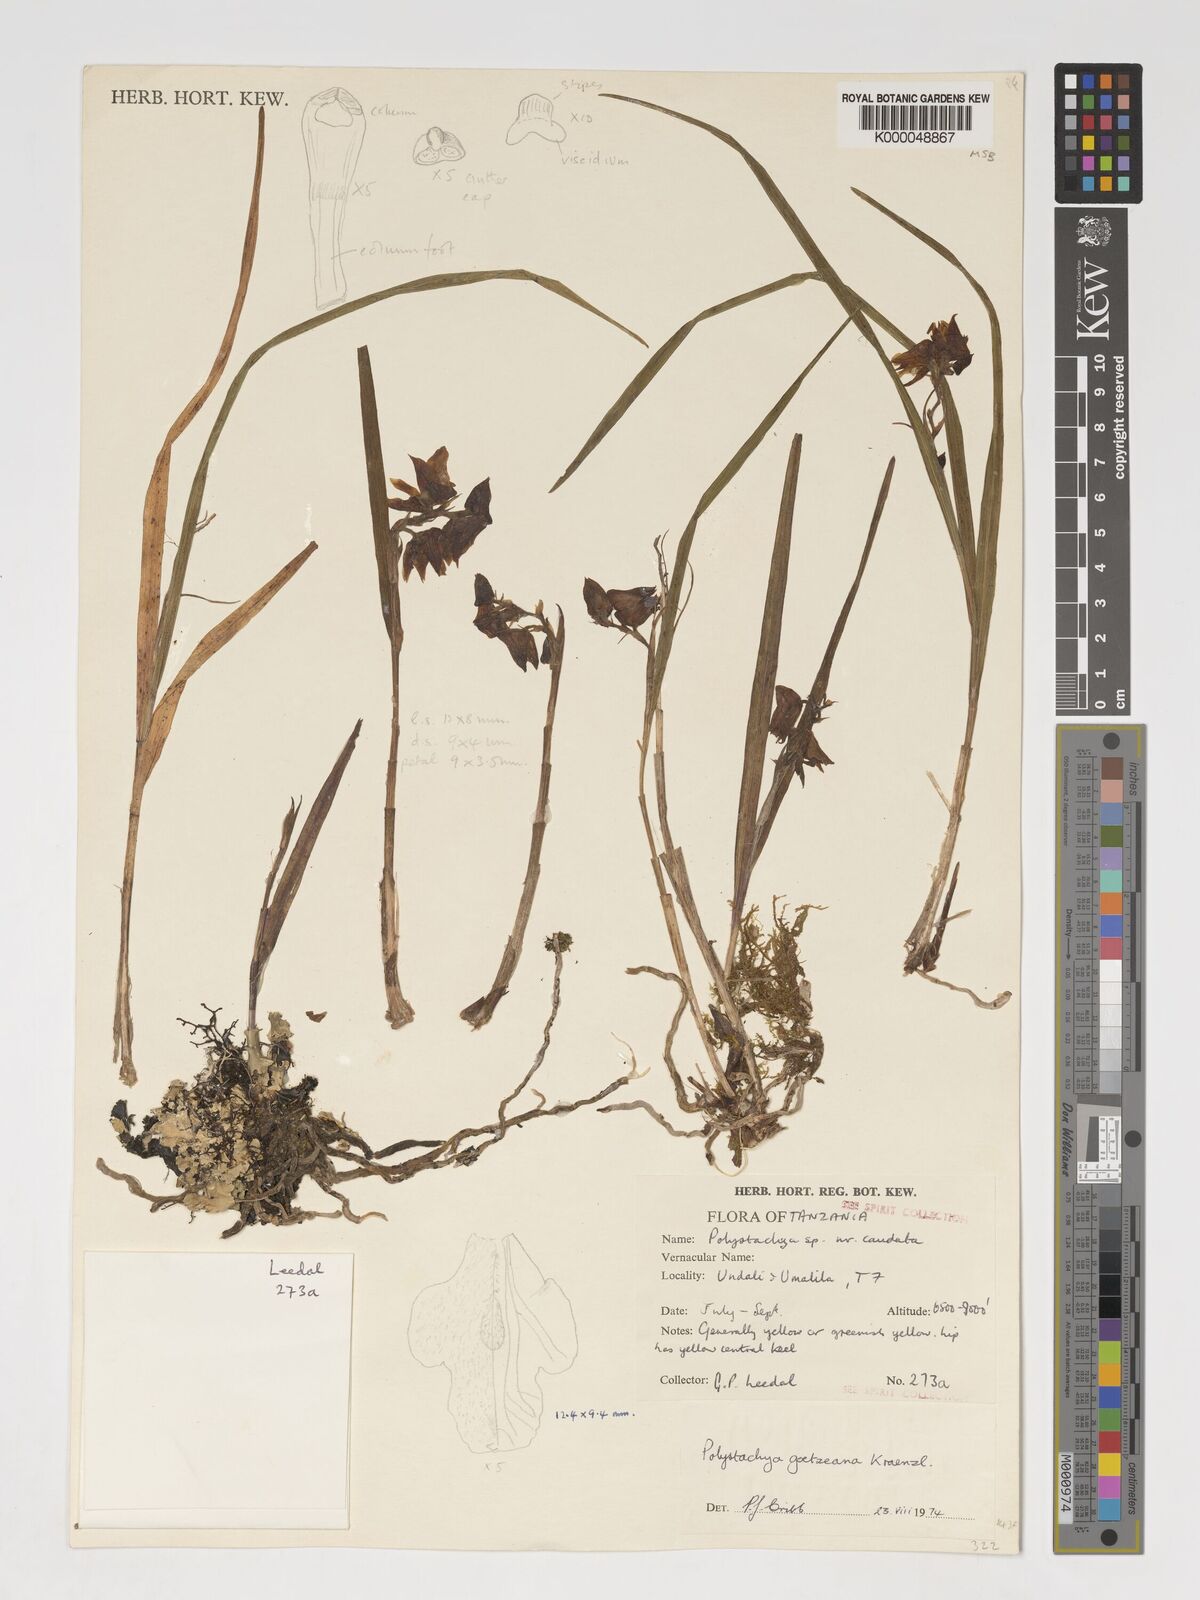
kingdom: Plantae
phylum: Tracheophyta
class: Liliopsida
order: Asparagales
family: Orchidaceae
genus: Polystachya
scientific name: Polystachya goetzeana
